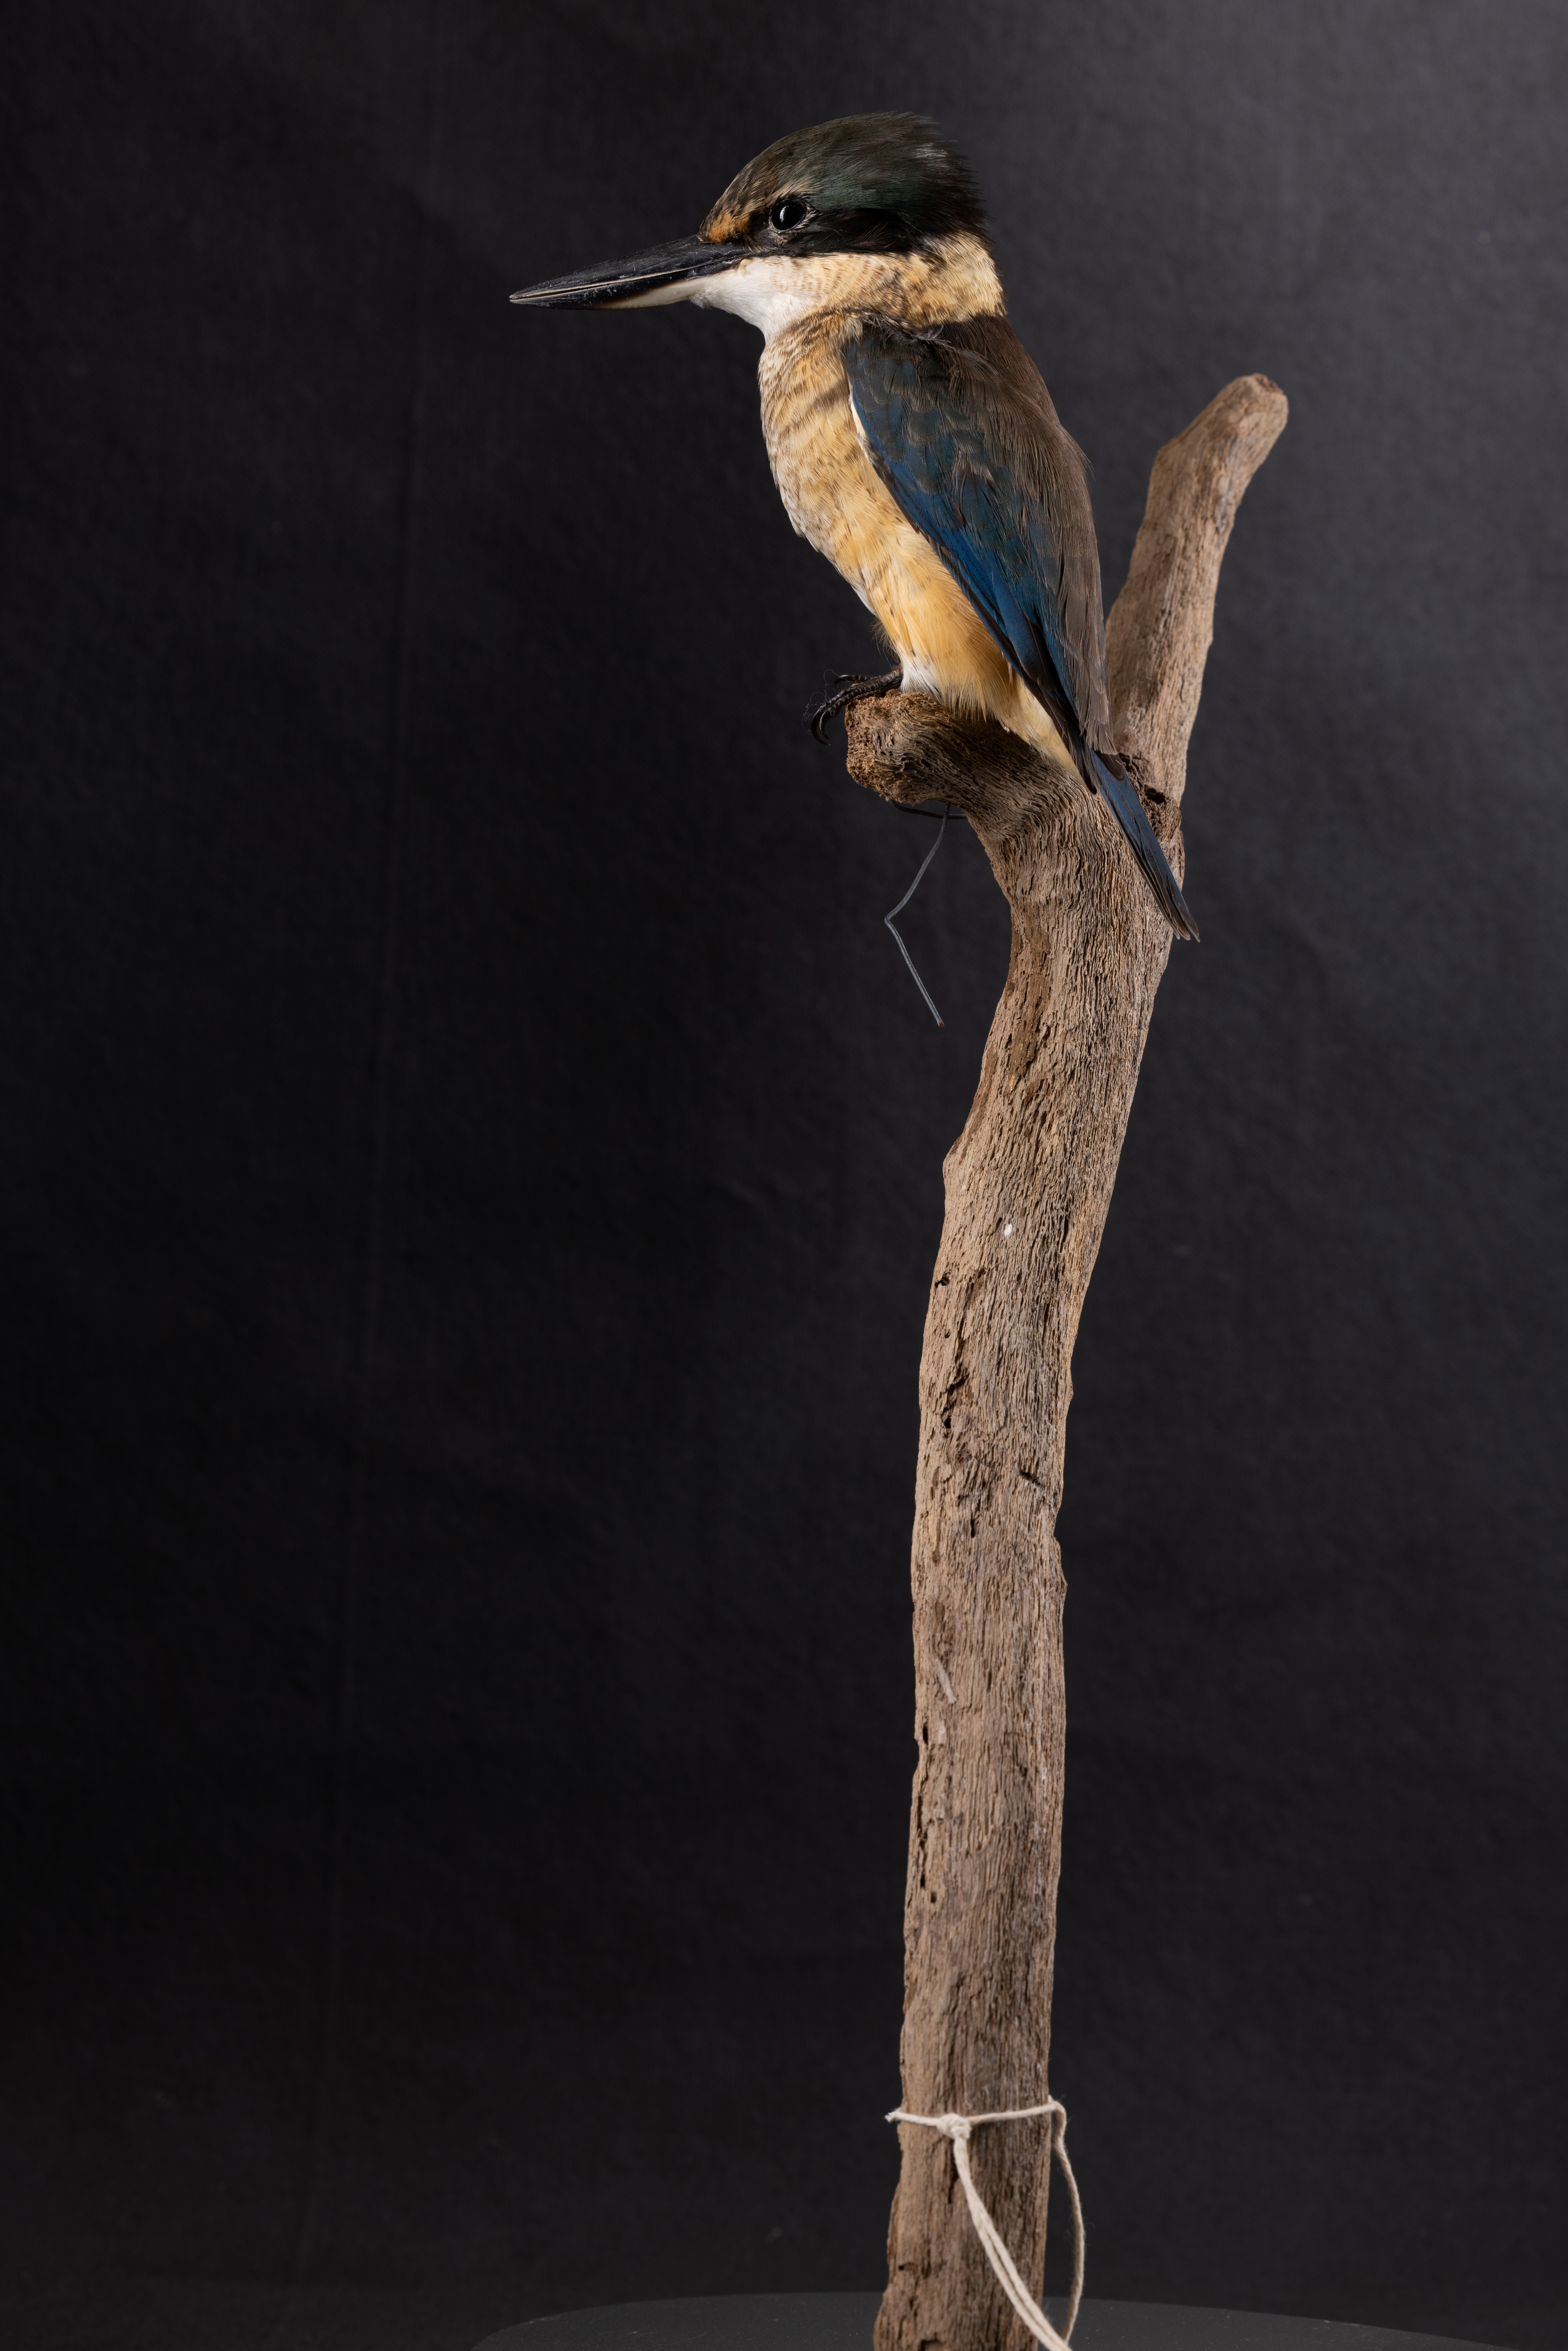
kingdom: Animalia
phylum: Chordata
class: Aves
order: Coraciiformes
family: Alcedinidae
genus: Todiramphus
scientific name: Todiramphus sanctus
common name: Sacred kingfisher
